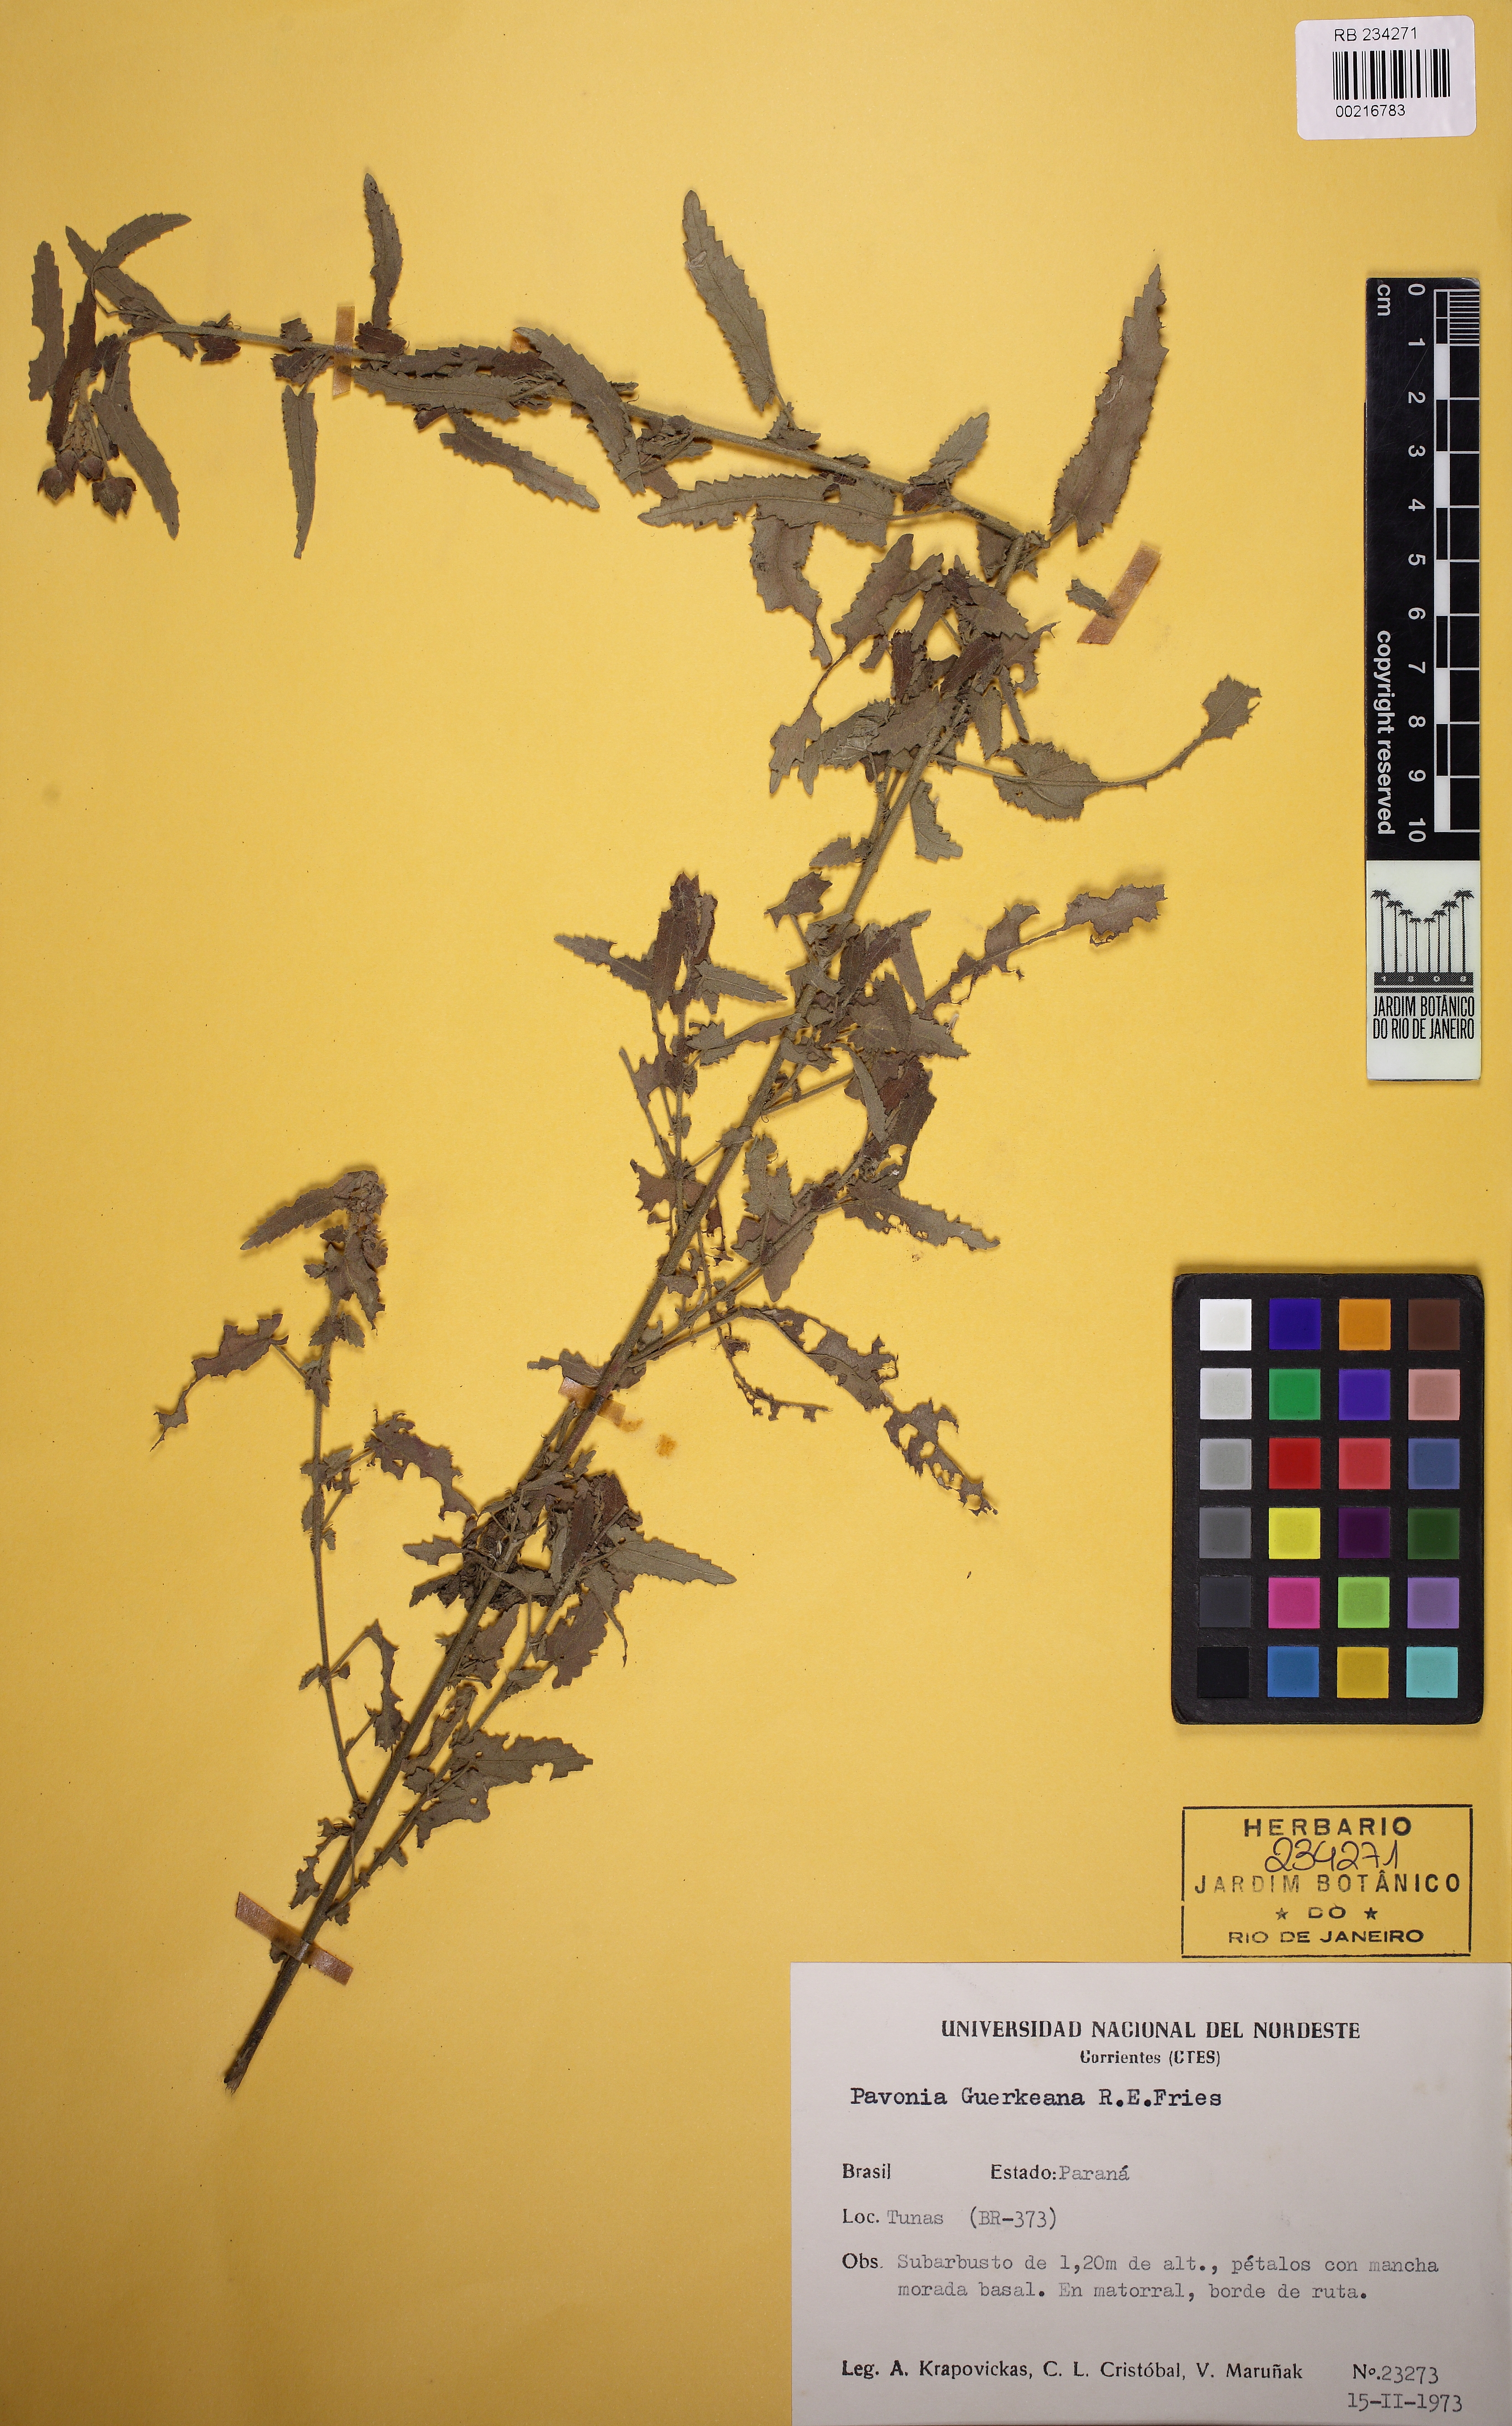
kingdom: Plantae
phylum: Tracheophyta
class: Magnoliopsida
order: Malvales
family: Malvaceae
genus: Pavonia
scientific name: Pavonia guerkeana
